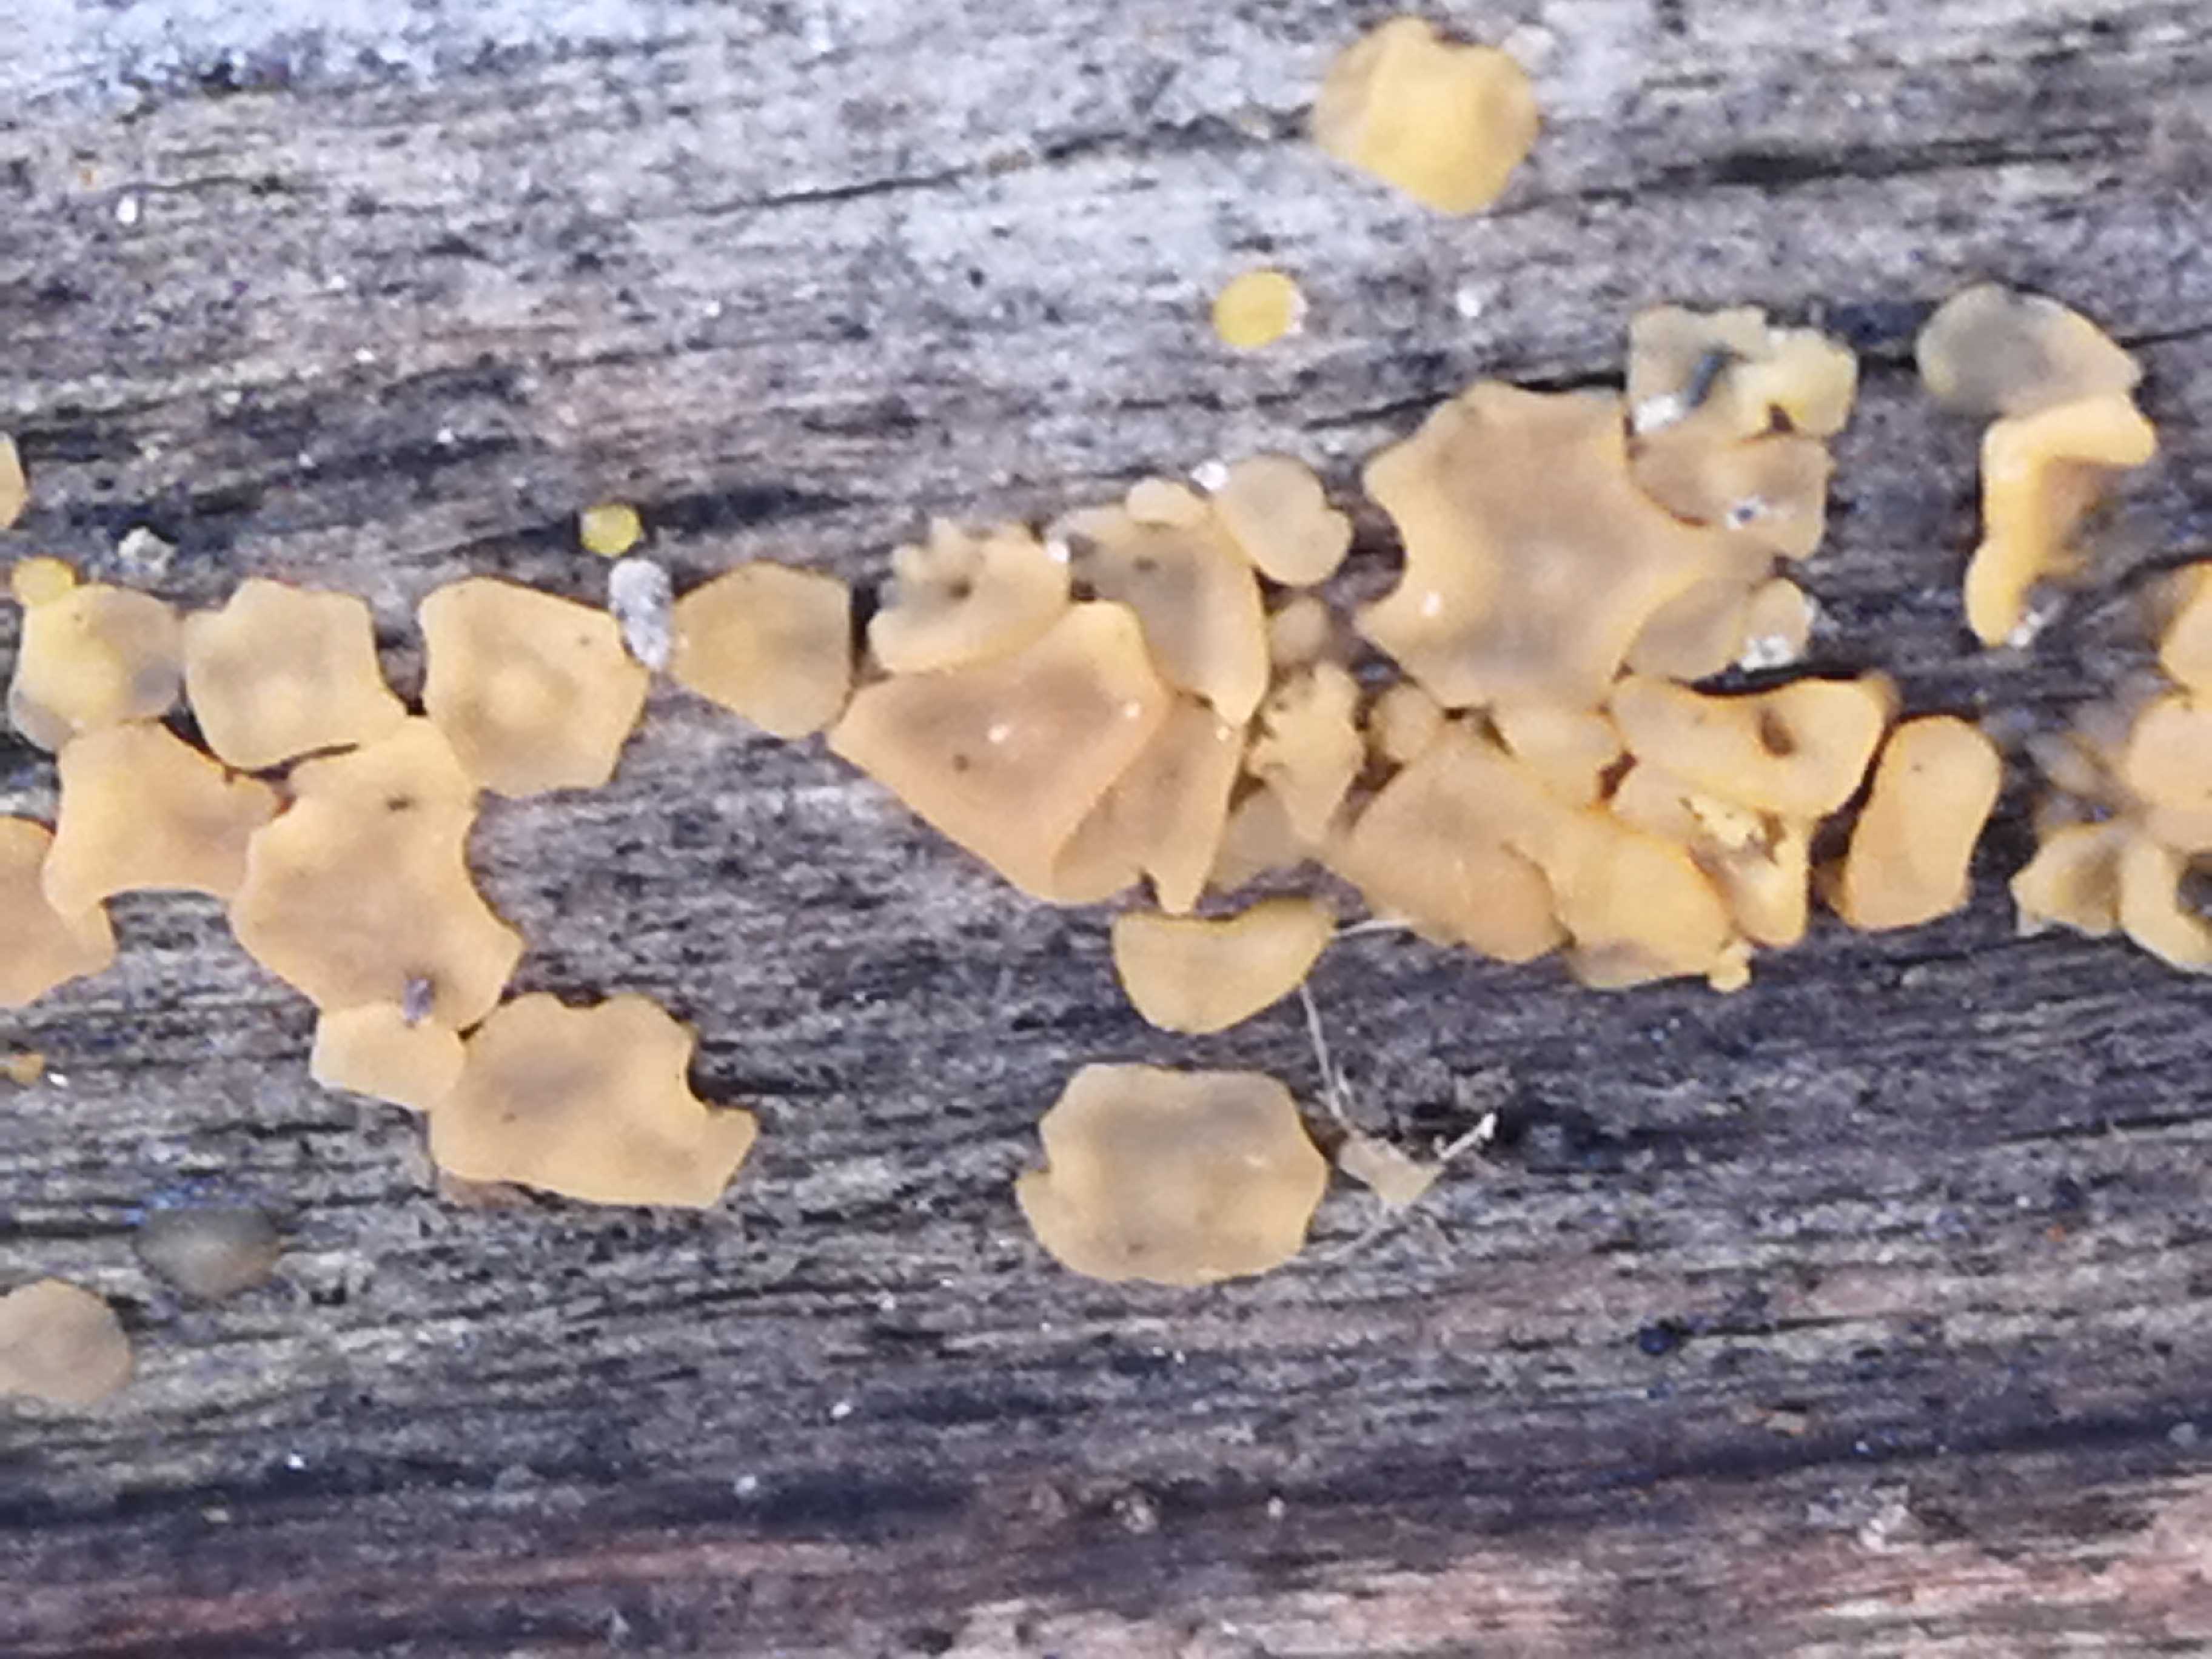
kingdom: Fungi
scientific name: Fungi
